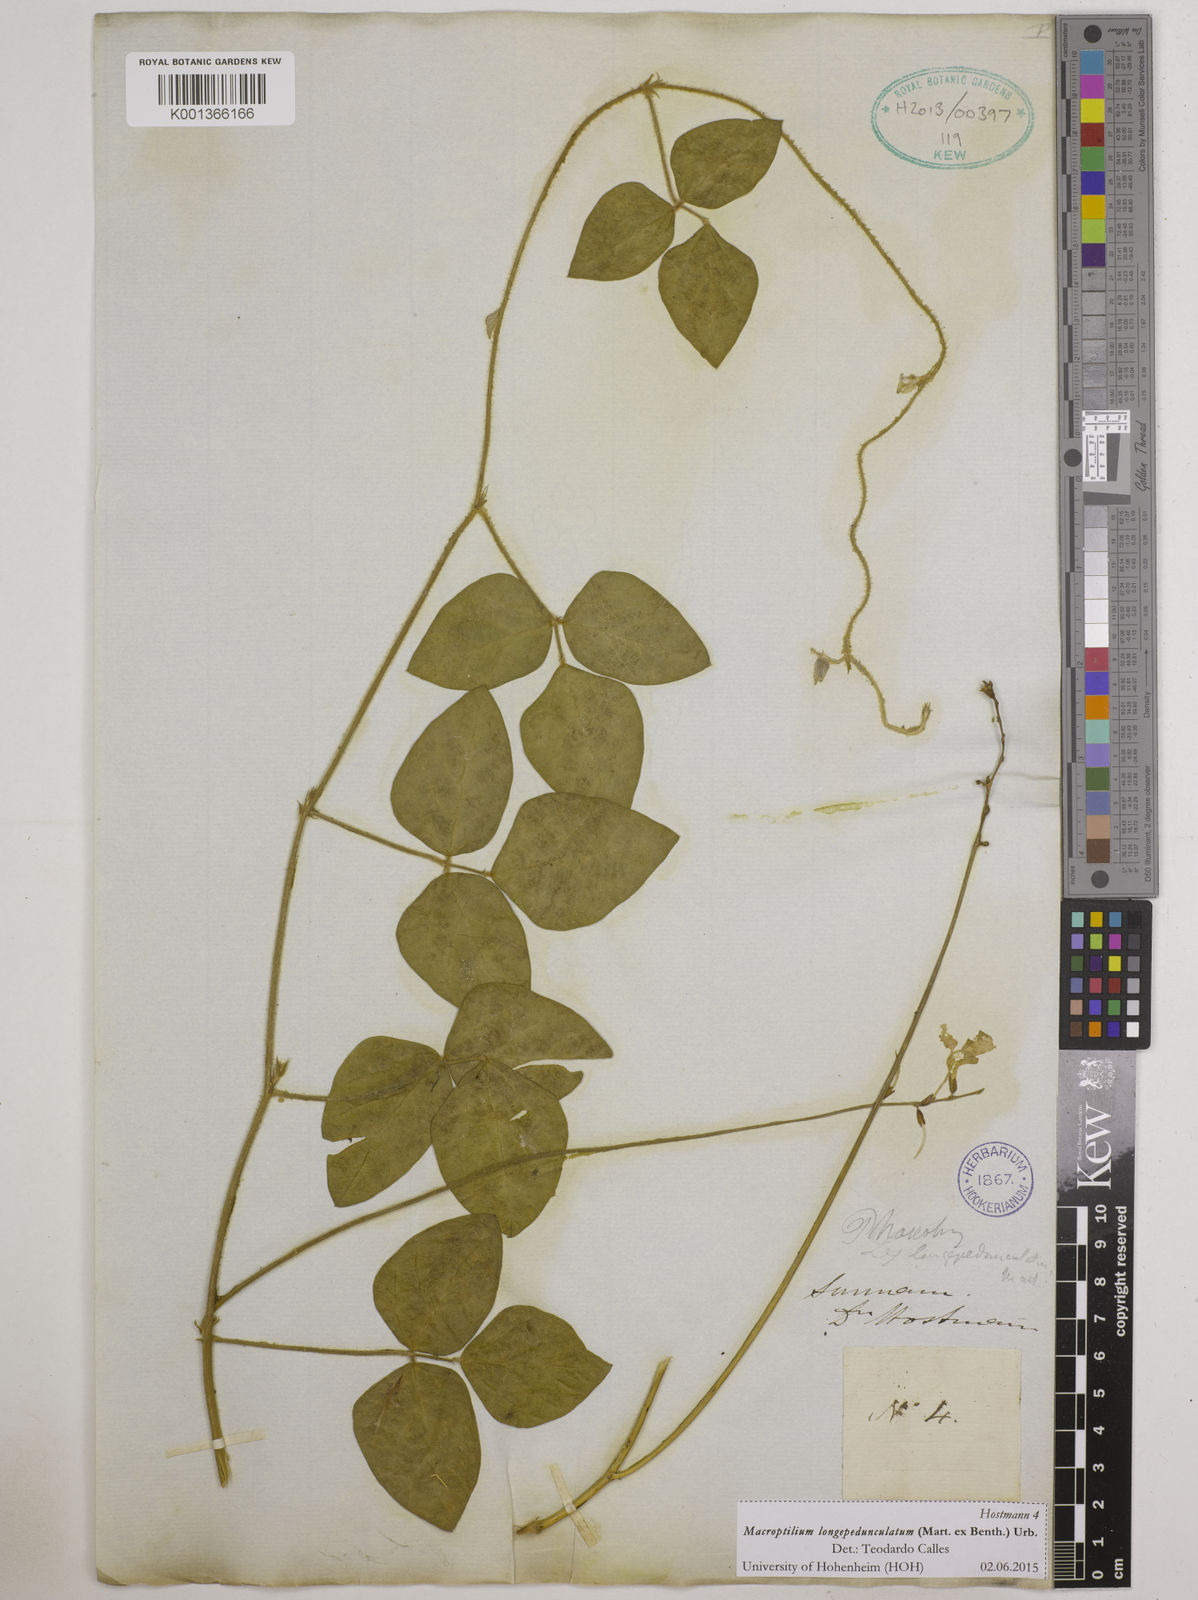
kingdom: Plantae
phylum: Tracheophyta
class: Magnoliopsida
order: Fabales
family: Fabaceae
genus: Macroptilium
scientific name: Macroptilium longepedunculatum
